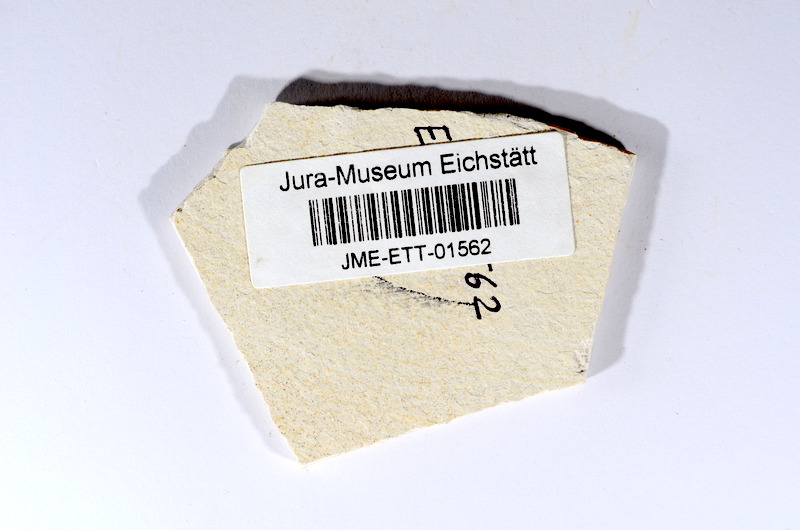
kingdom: Animalia
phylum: Chordata
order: Salmoniformes
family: Orthogonikleithridae
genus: Orthogonikleithrus
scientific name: Orthogonikleithrus hoelli
